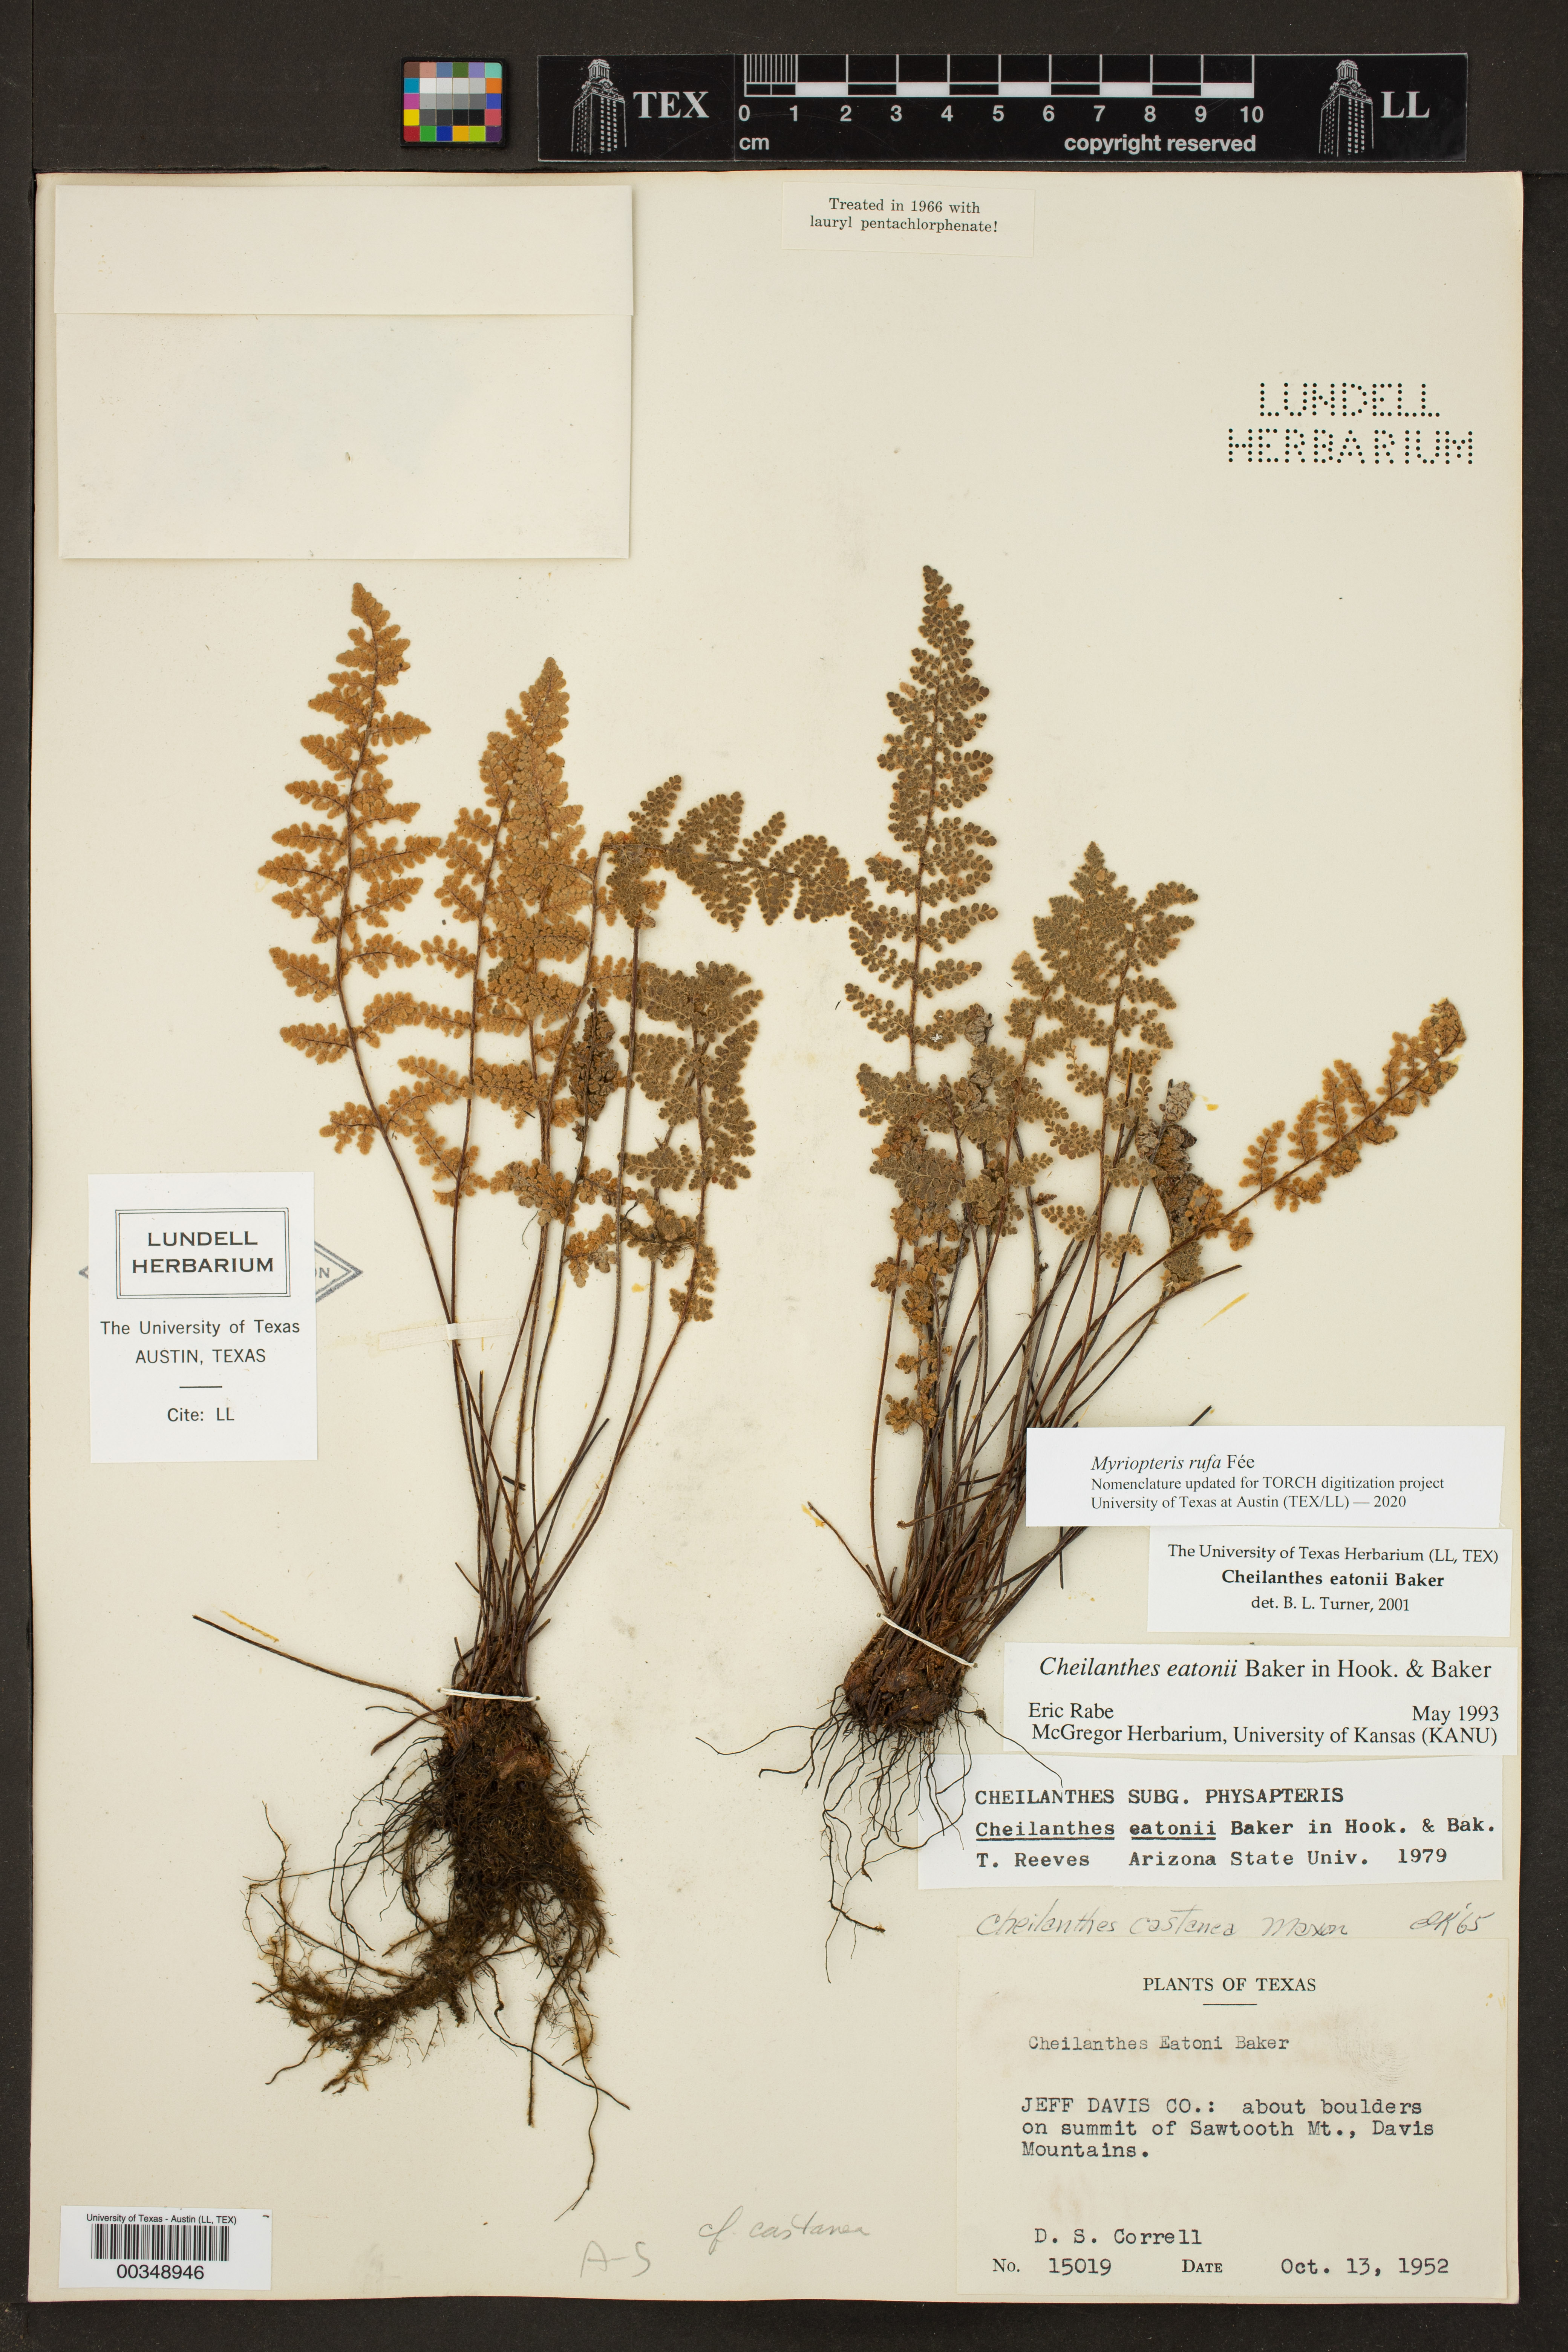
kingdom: Plantae
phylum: Tracheophyta
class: Polypodiopsida
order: Polypodiales
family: Pteridaceae
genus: Myriopteris
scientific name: Myriopteris rufa
